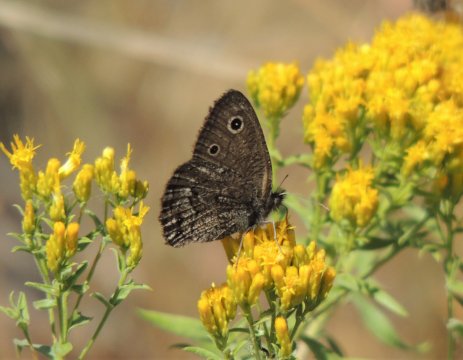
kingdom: Animalia
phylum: Arthropoda
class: Insecta
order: Lepidoptera
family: Nymphalidae
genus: Cercyonis
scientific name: Cercyonis oetus
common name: Small Wood-Nymph
